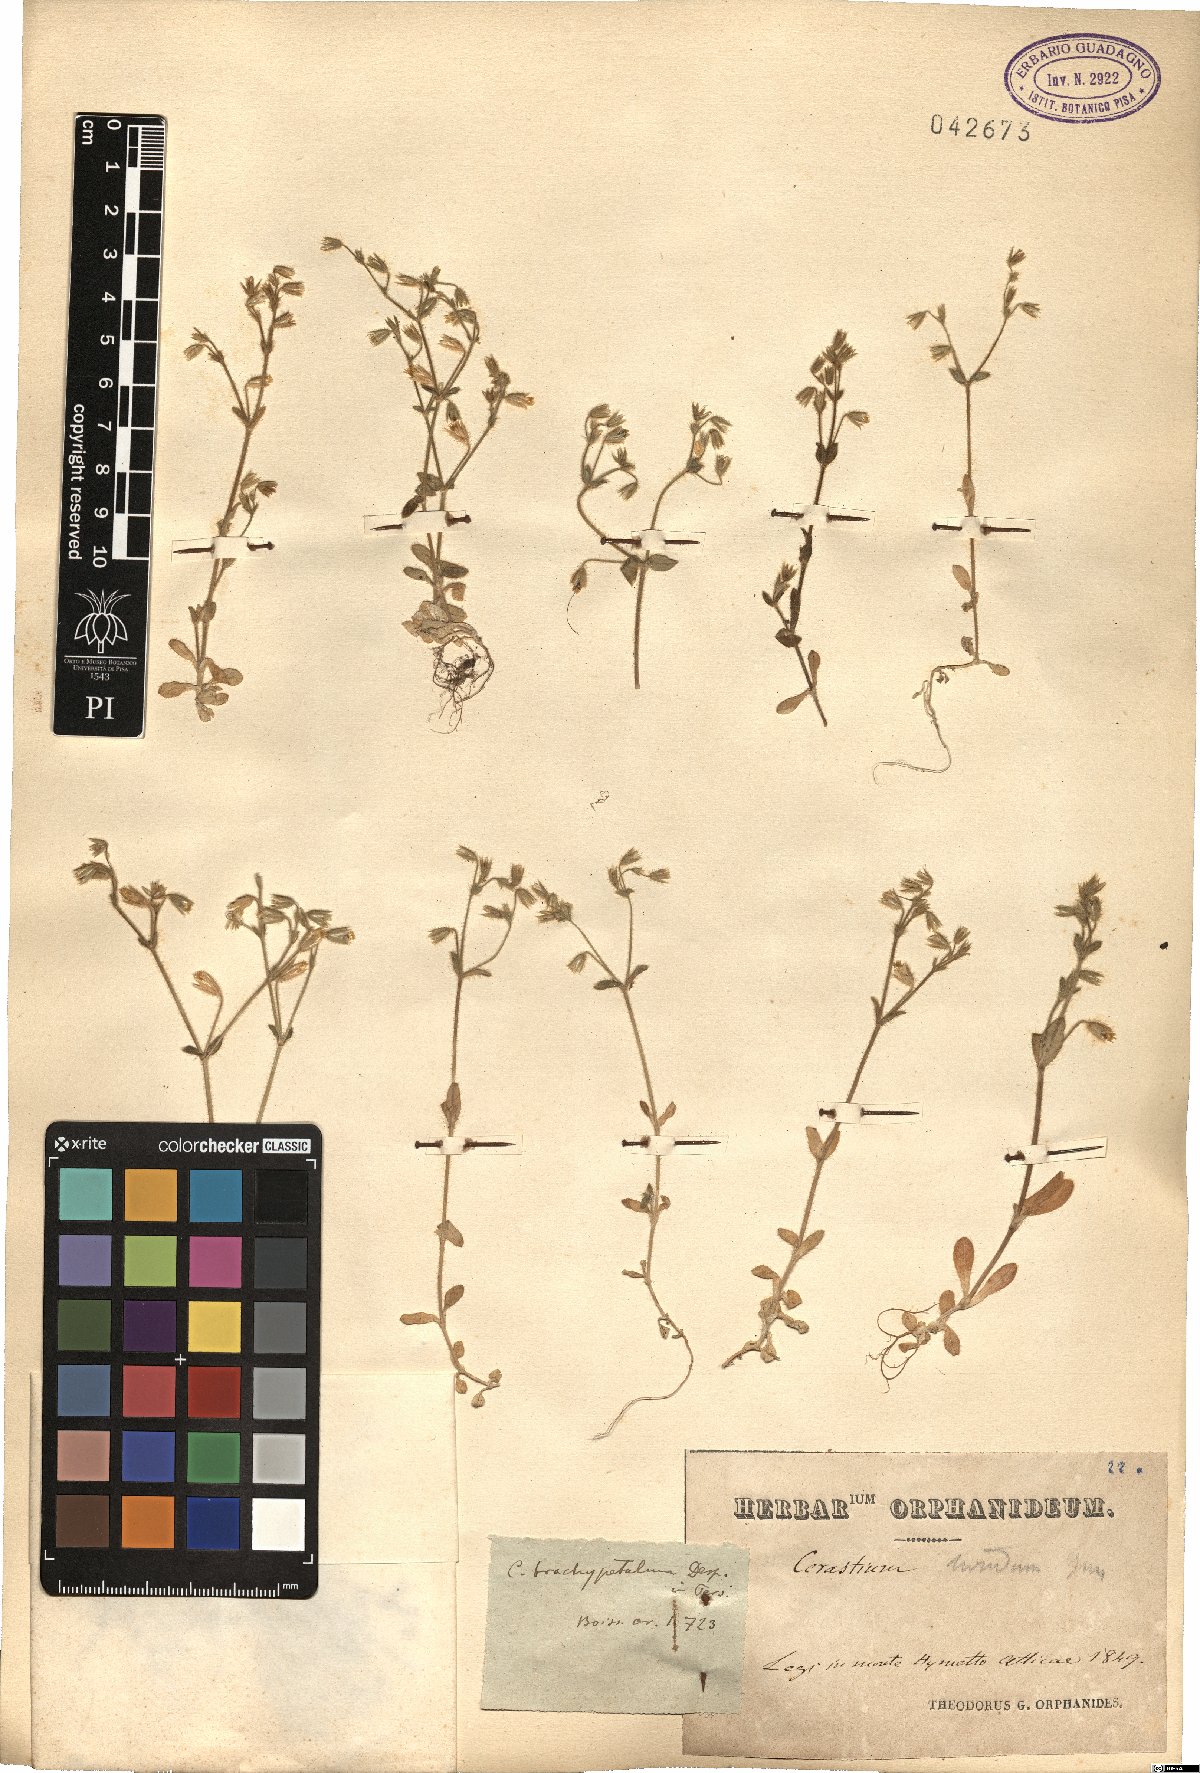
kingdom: Plantae
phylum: Tracheophyta
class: Magnoliopsida
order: Caryophyllales
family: Caryophyllaceae
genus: Cerastium
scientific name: Cerastium brachypetalum
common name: Grey mouse-ear
